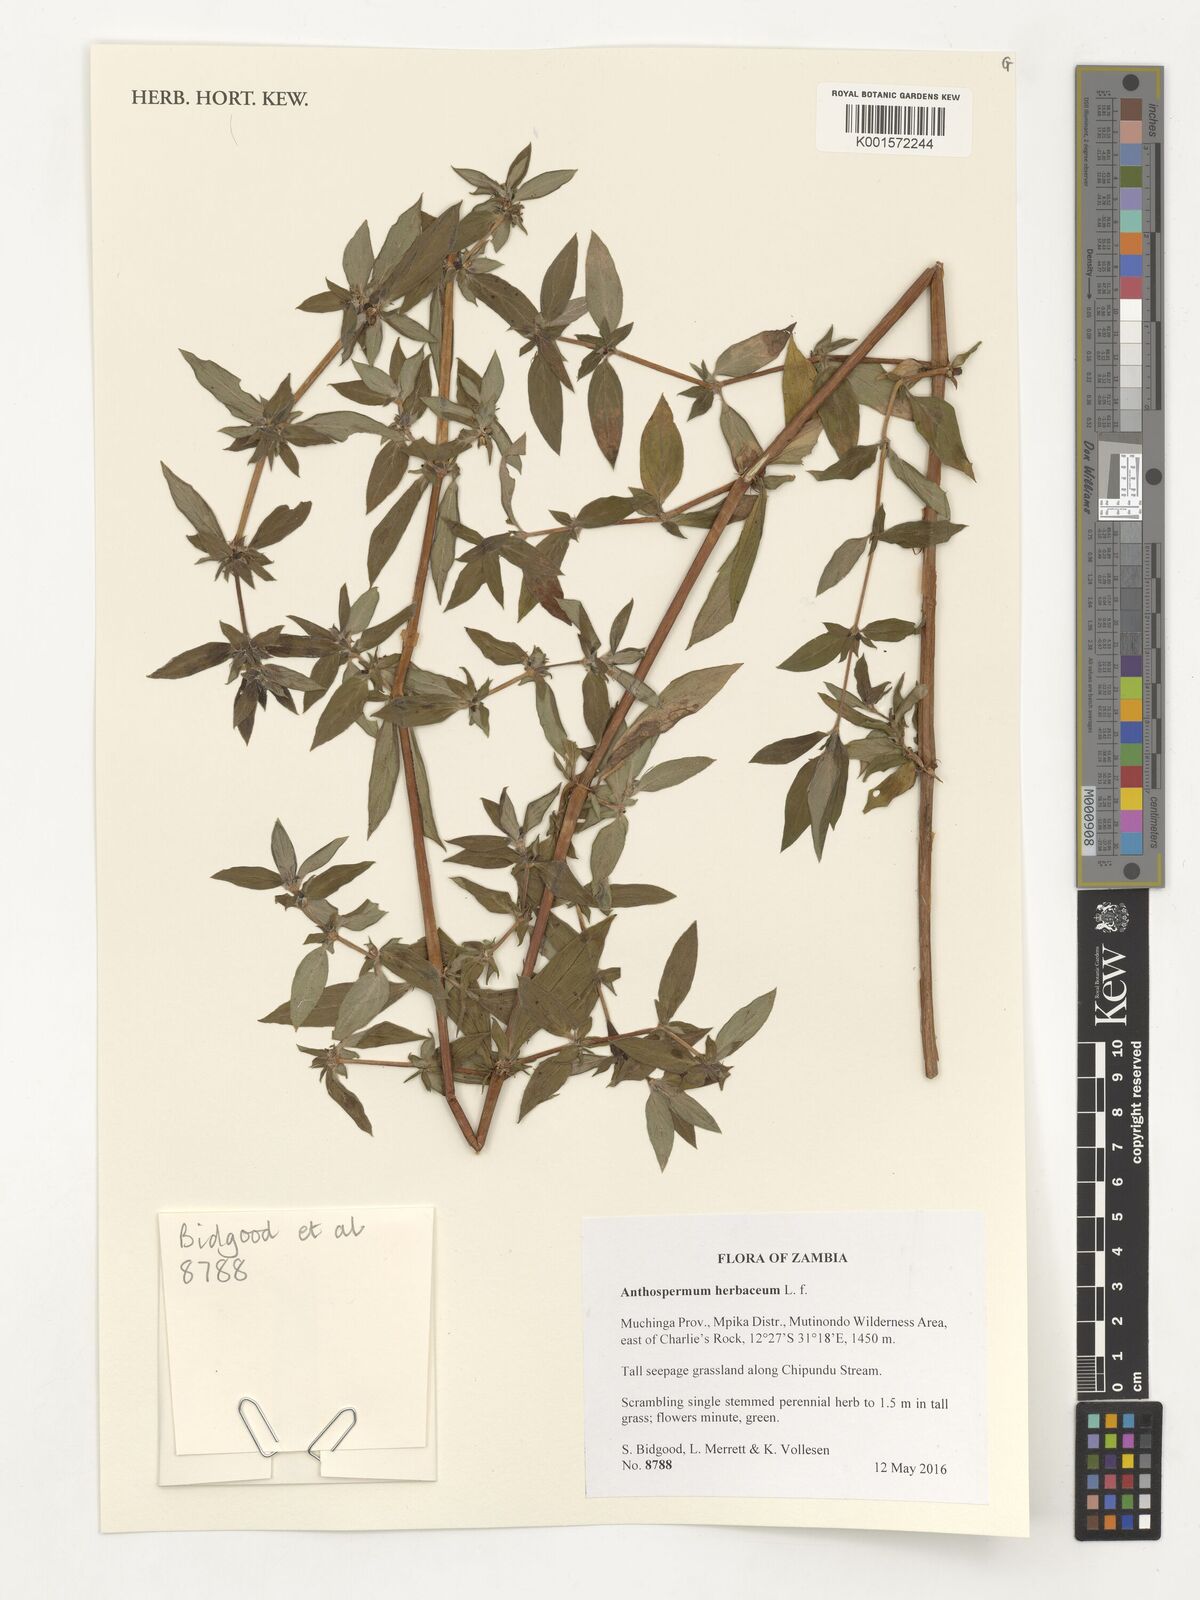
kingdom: Plantae
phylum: Tracheophyta
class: Magnoliopsida
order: Gentianales
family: Rubiaceae
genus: Anthospermum
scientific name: Anthospermum herbaceum
